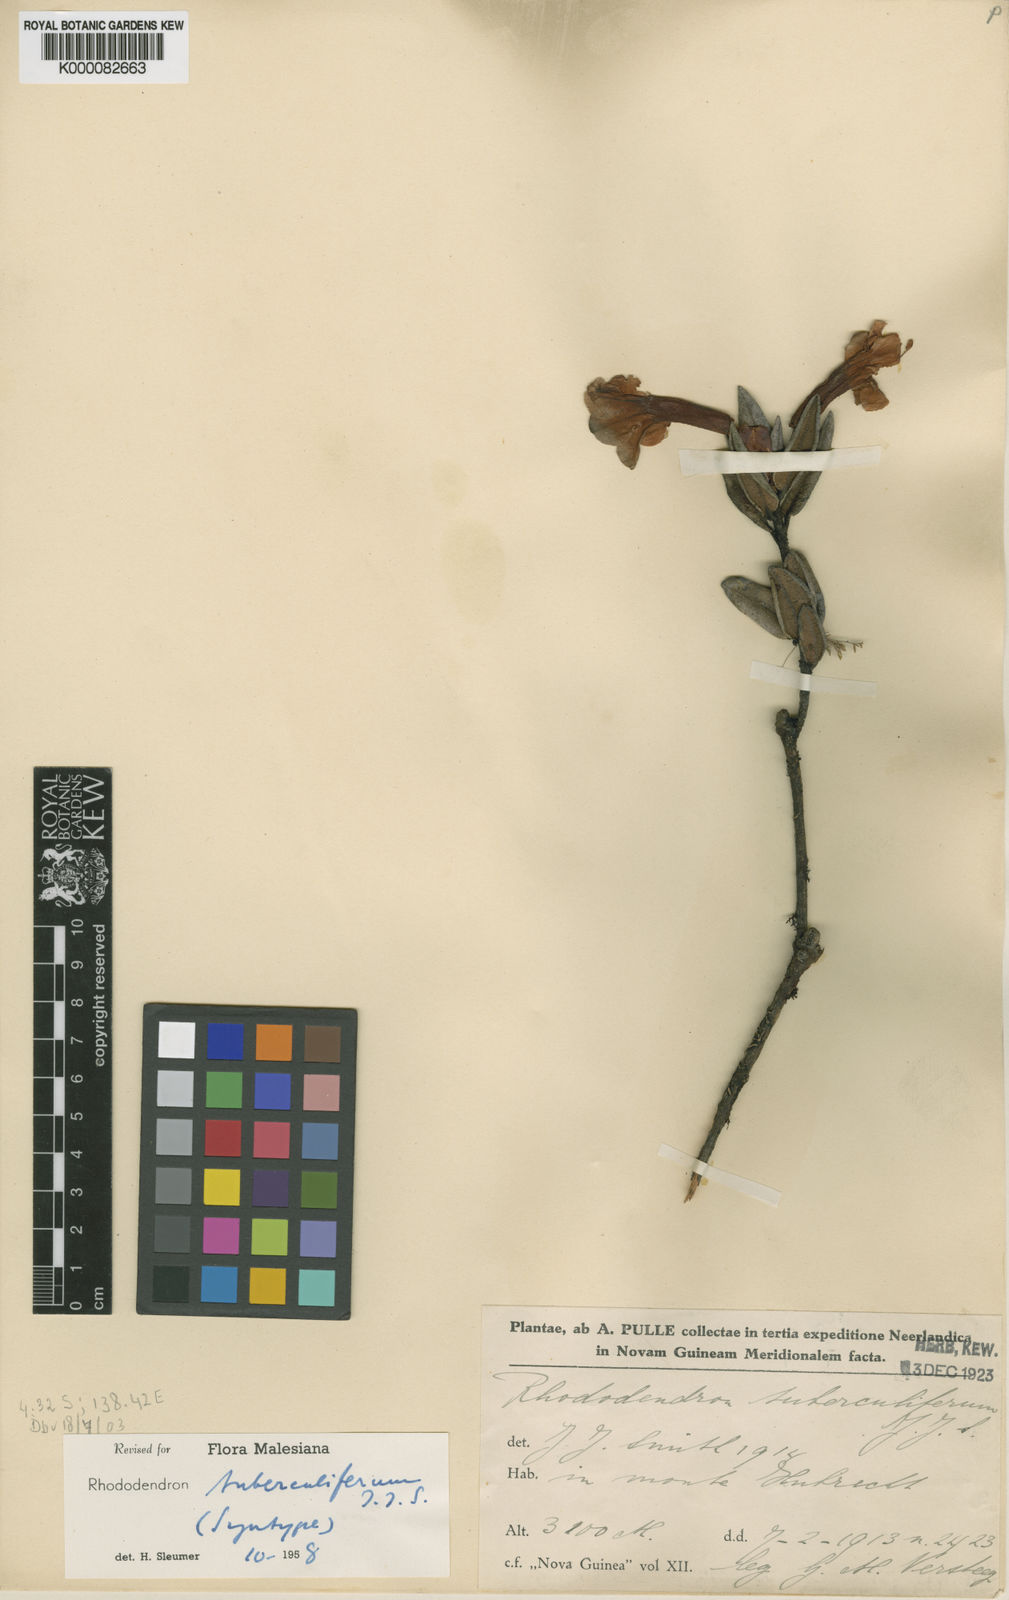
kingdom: Plantae
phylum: Tracheophyta
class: Magnoliopsida
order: Ericales
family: Ericaceae
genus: Rhododendron
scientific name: Rhododendron tuberculiferum
